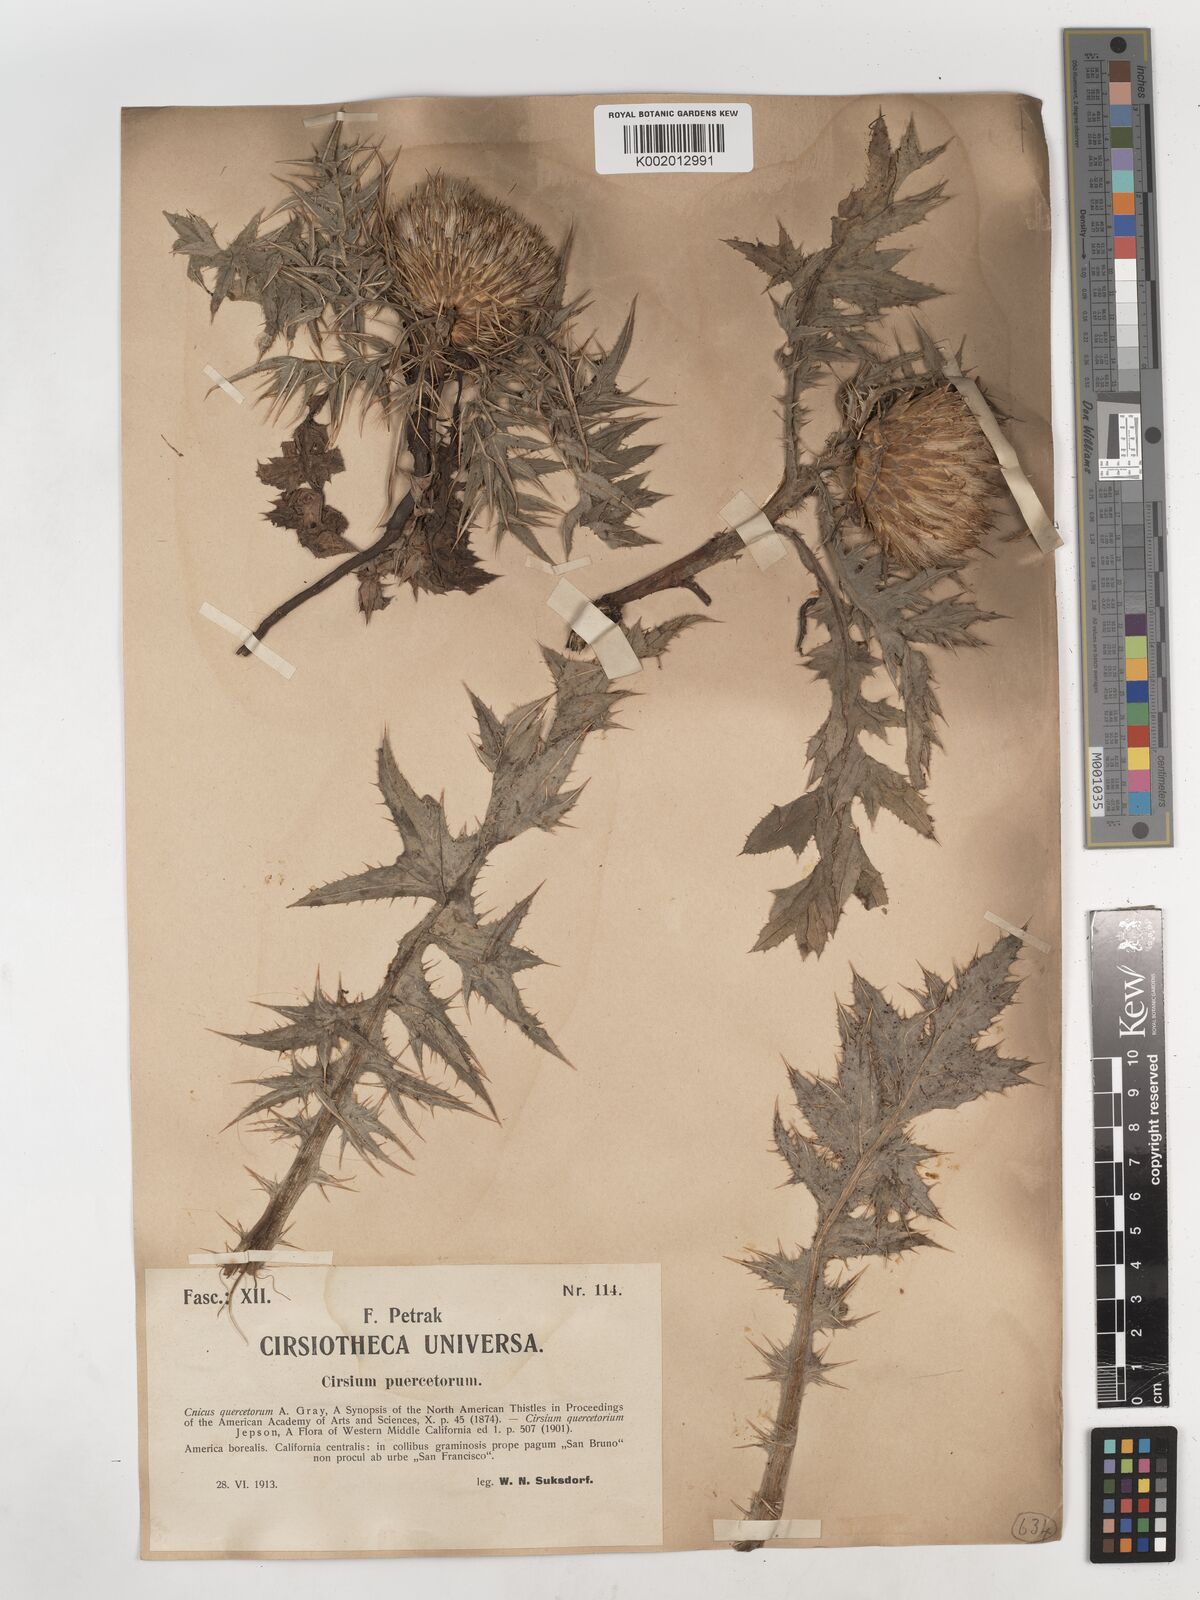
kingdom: Plantae
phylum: Tracheophyta
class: Magnoliopsida
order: Asterales
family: Asteraceae
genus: Cirsium
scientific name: Cirsium quercetorum
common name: Alameda county thistle
